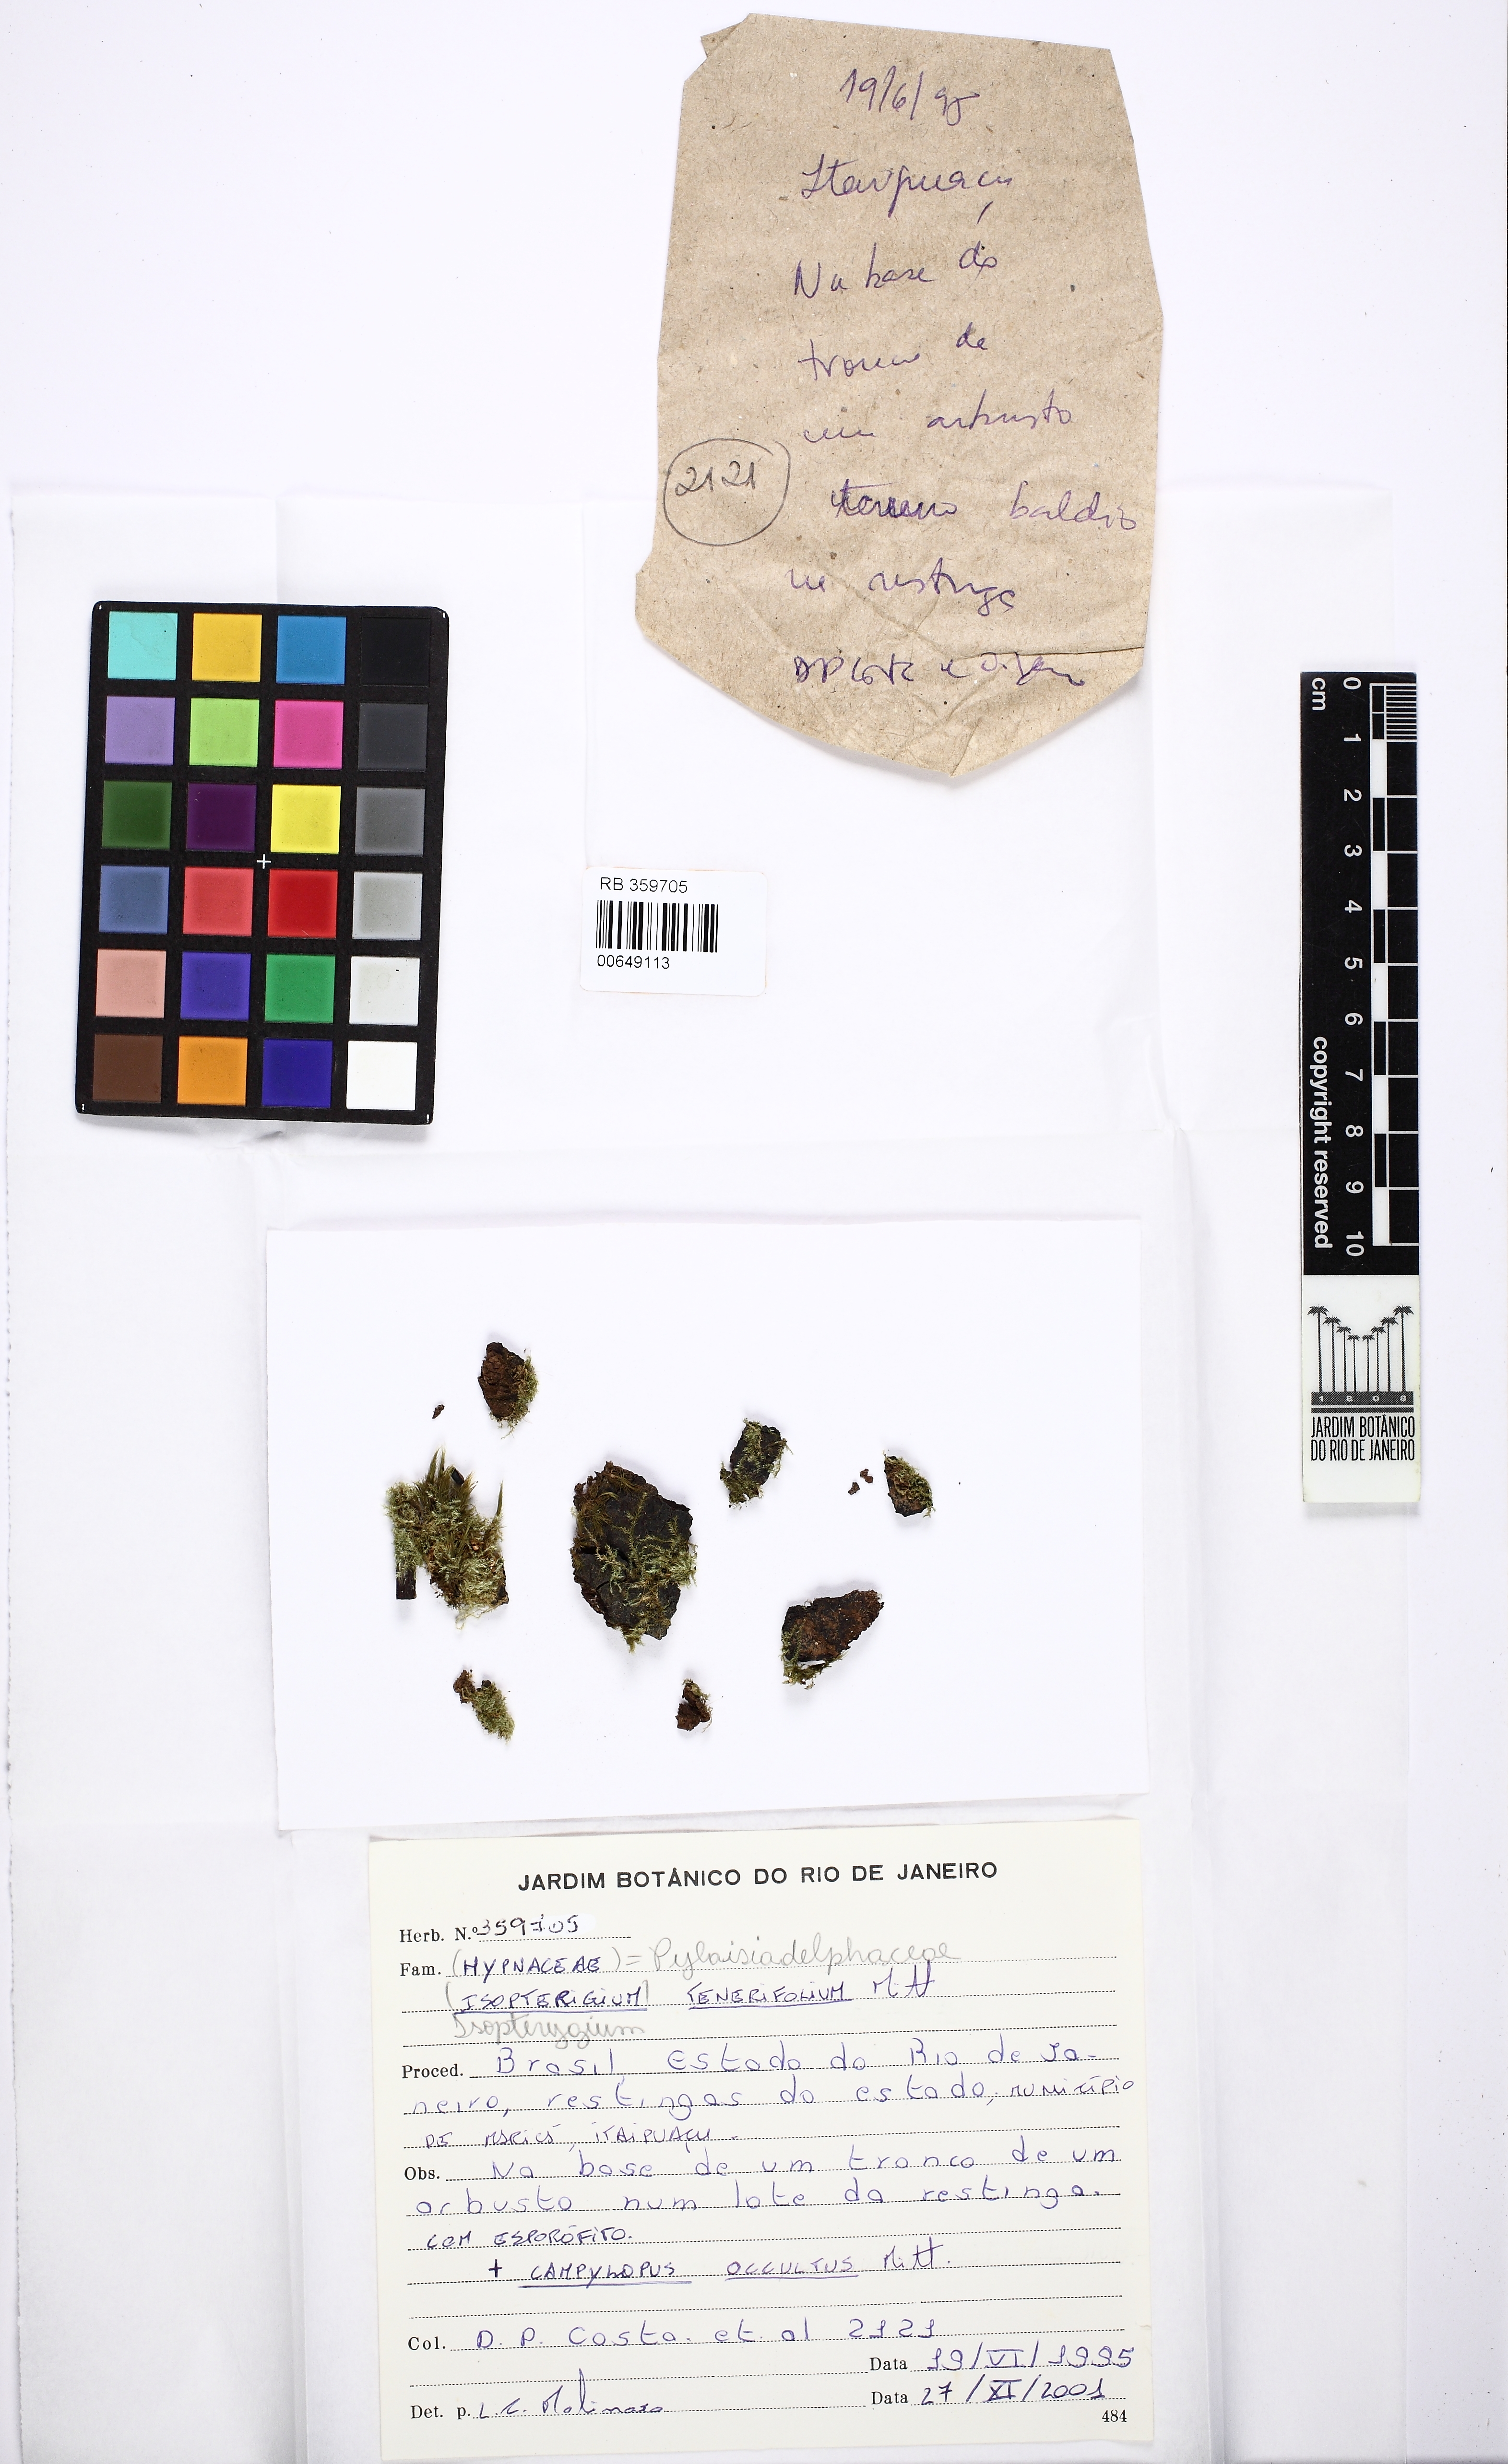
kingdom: Plantae
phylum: Bryophyta
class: Bryopsida
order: Hypnales
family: Pylaisiadelphaceae
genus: Isopterygium
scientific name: Isopterygium tenerifolium
